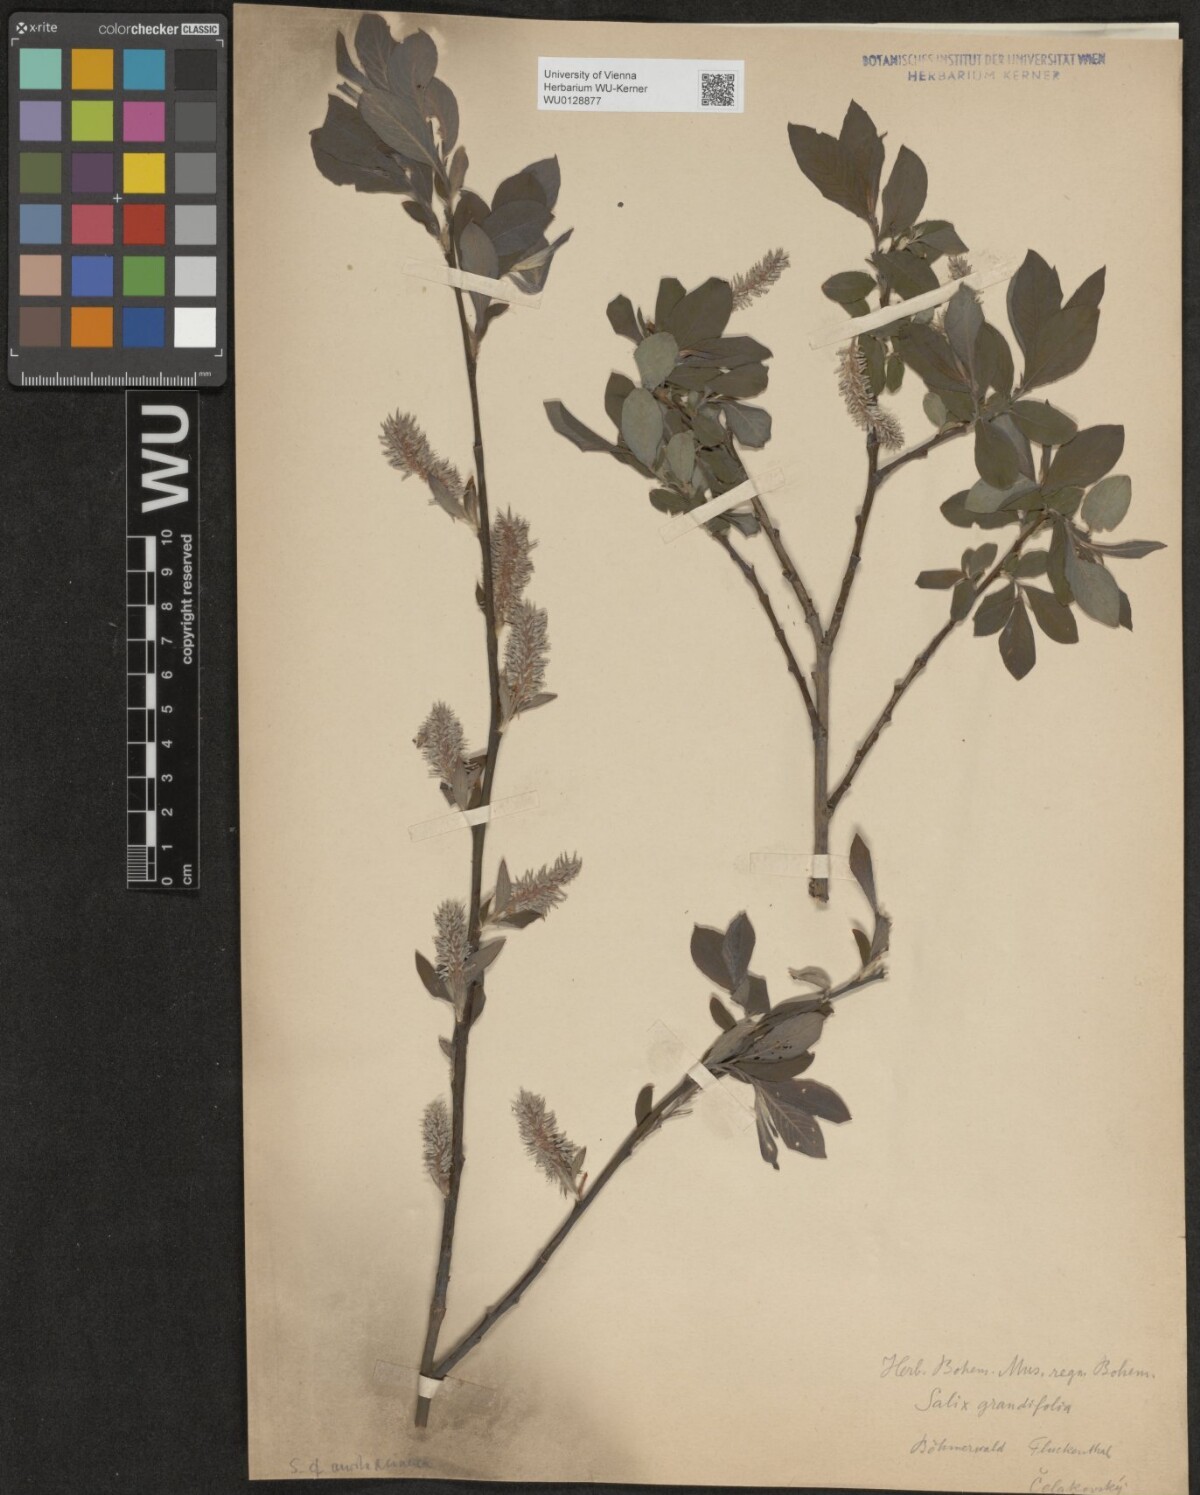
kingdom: Plantae
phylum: Tracheophyta
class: Magnoliopsida
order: Malpighiales
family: Salicaceae
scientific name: Salicaceae
